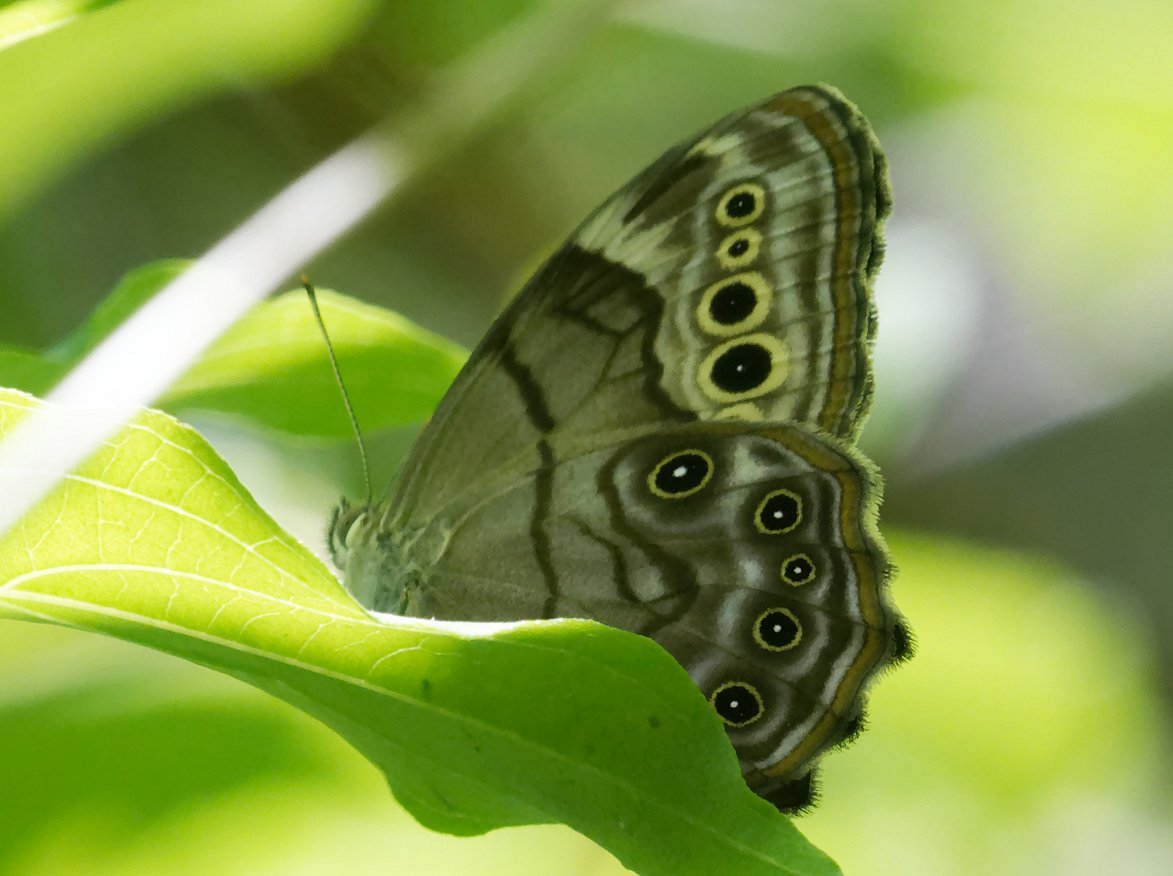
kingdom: Animalia
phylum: Arthropoda
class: Insecta
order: Lepidoptera
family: Nymphalidae
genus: Lethe
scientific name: Lethe anthedon
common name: Northern Pearly-Eye
